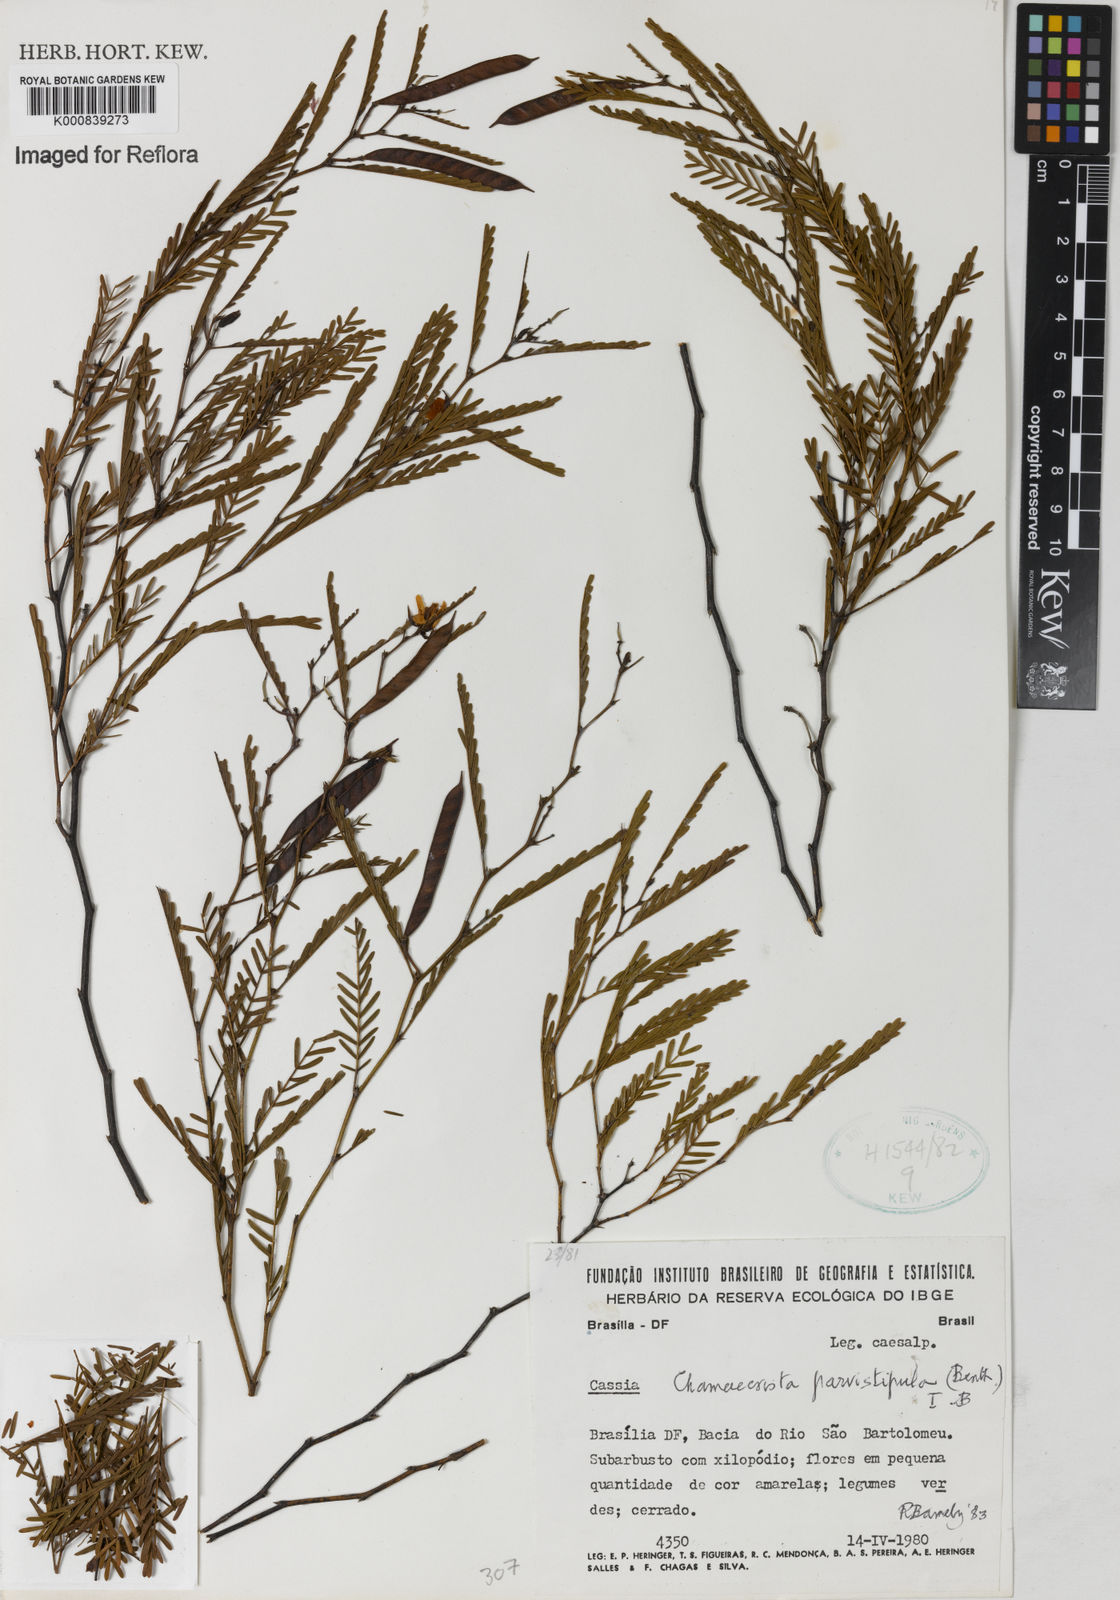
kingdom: Plantae
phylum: Tracheophyta
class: Magnoliopsida
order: Fabales
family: Fabaceae
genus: Chamaecrista
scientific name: Chamaecrista parvistipula
